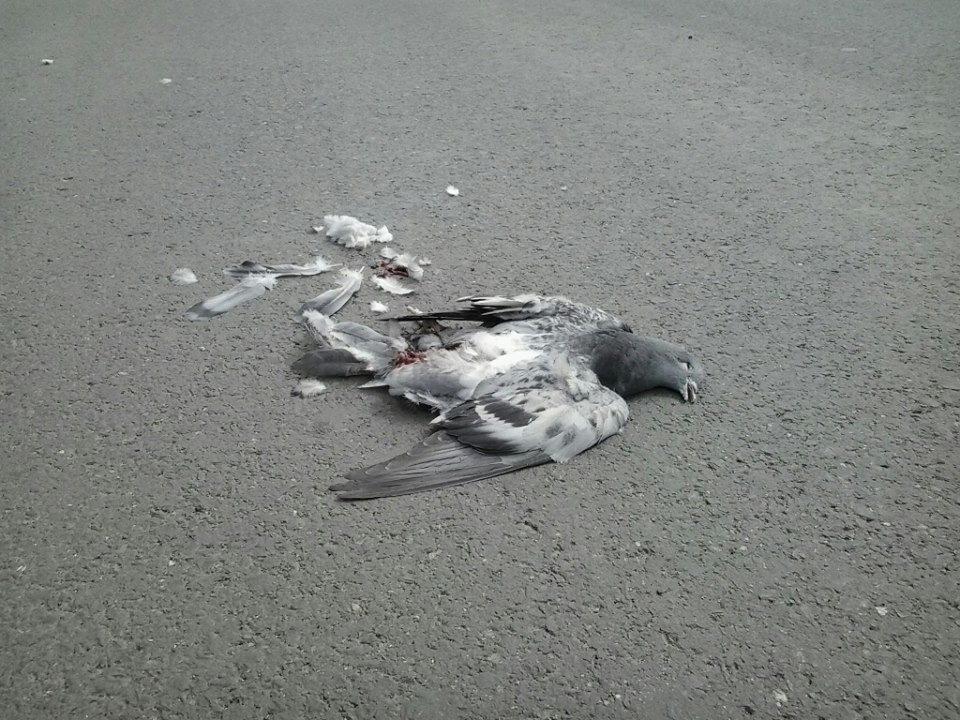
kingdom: Animalia
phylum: Chordata
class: Aves
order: Columbiformes
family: Columbidae
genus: Columba
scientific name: Columba livia
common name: Rock pigeon
